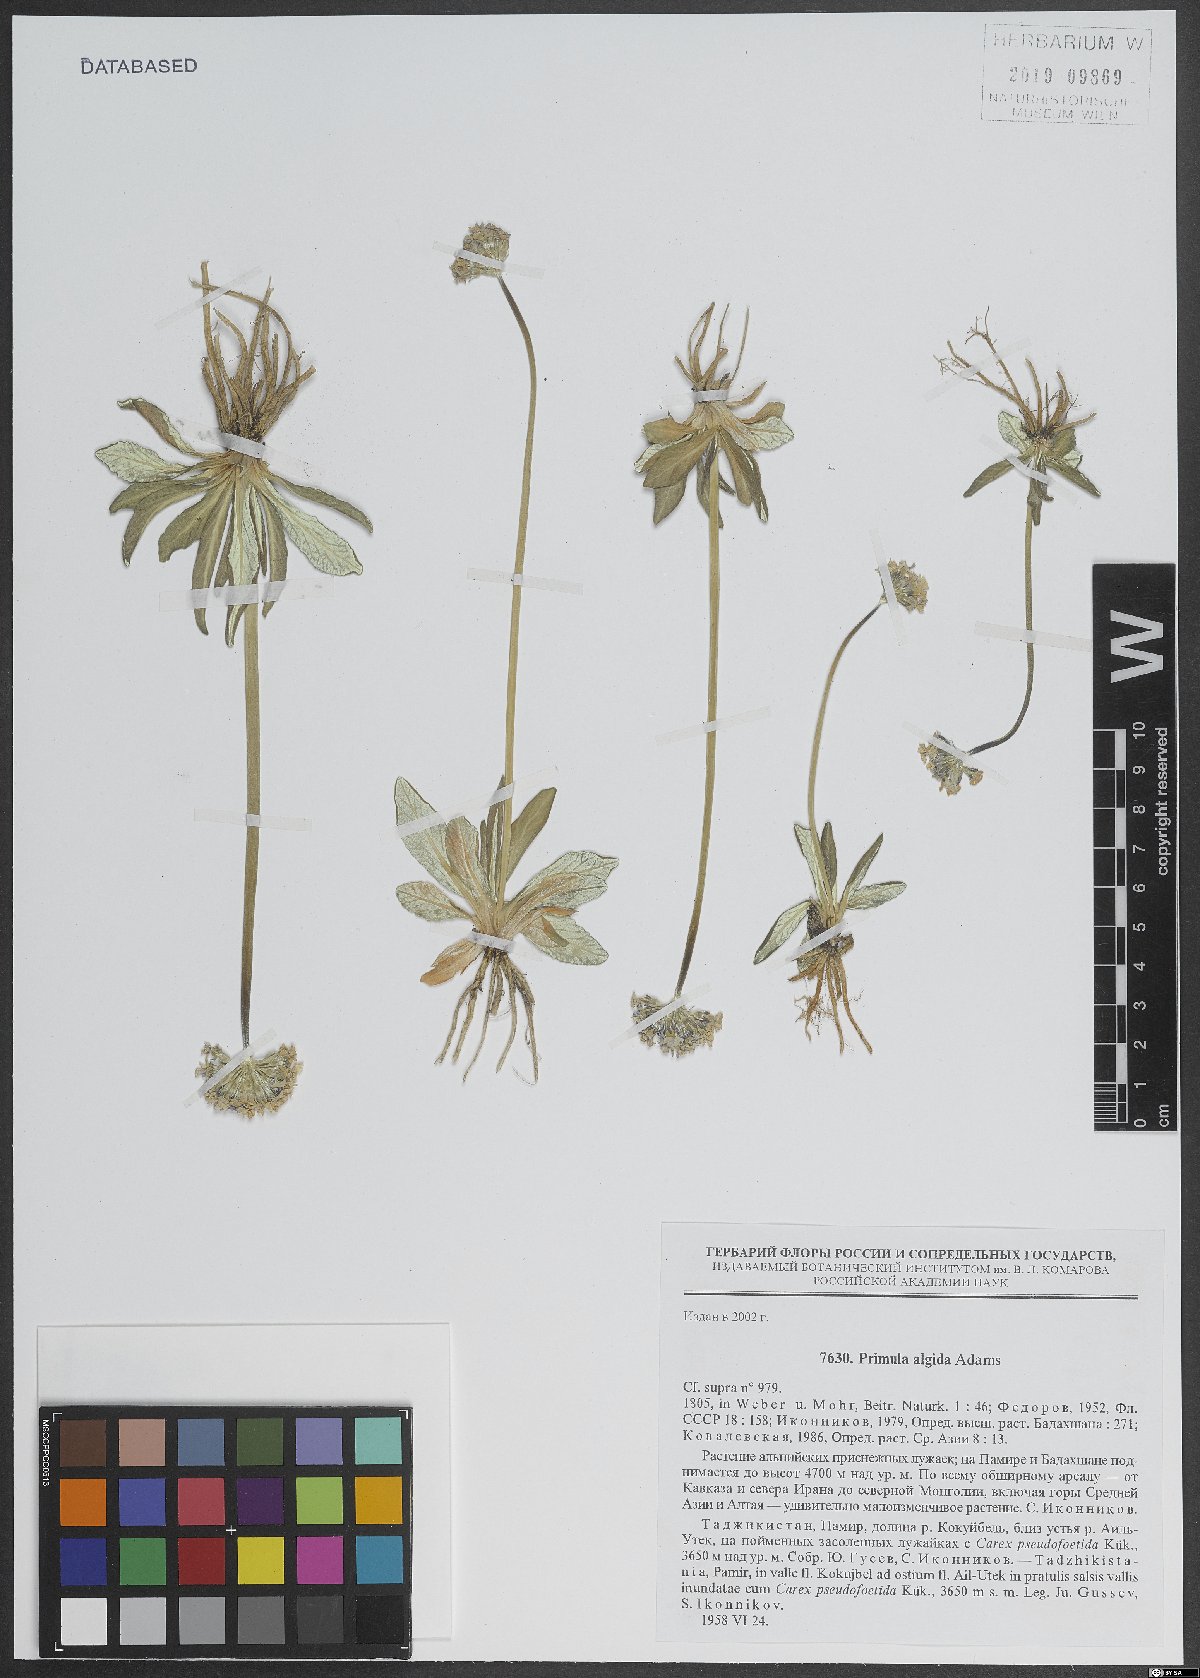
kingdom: Plantae
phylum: Tracheophyta
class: Magnoliopsida
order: Ericales
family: Primulaceae
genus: Primula
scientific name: Primula algida
